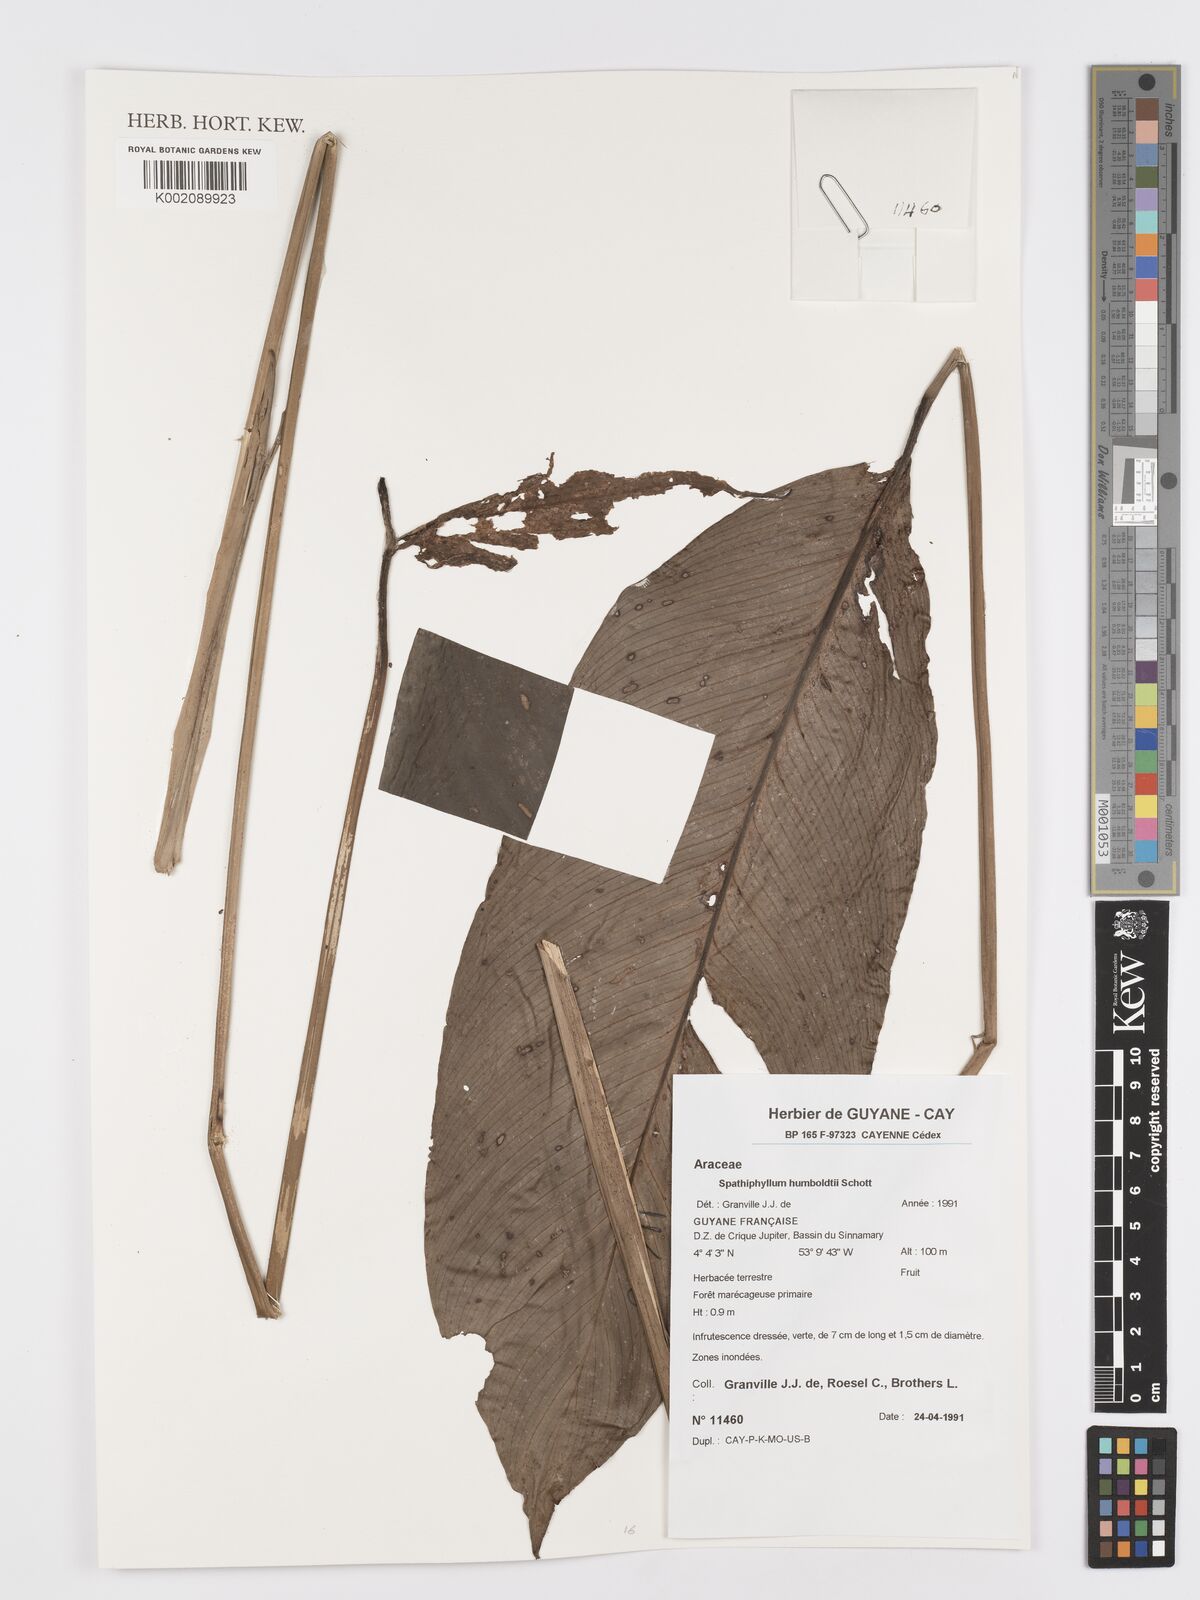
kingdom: Plantae
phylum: Tracheophyta
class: Liliopsida
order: Alismatales
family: Araceae
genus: Spathiphyllum
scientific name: Spathiphyllum humboldtii
